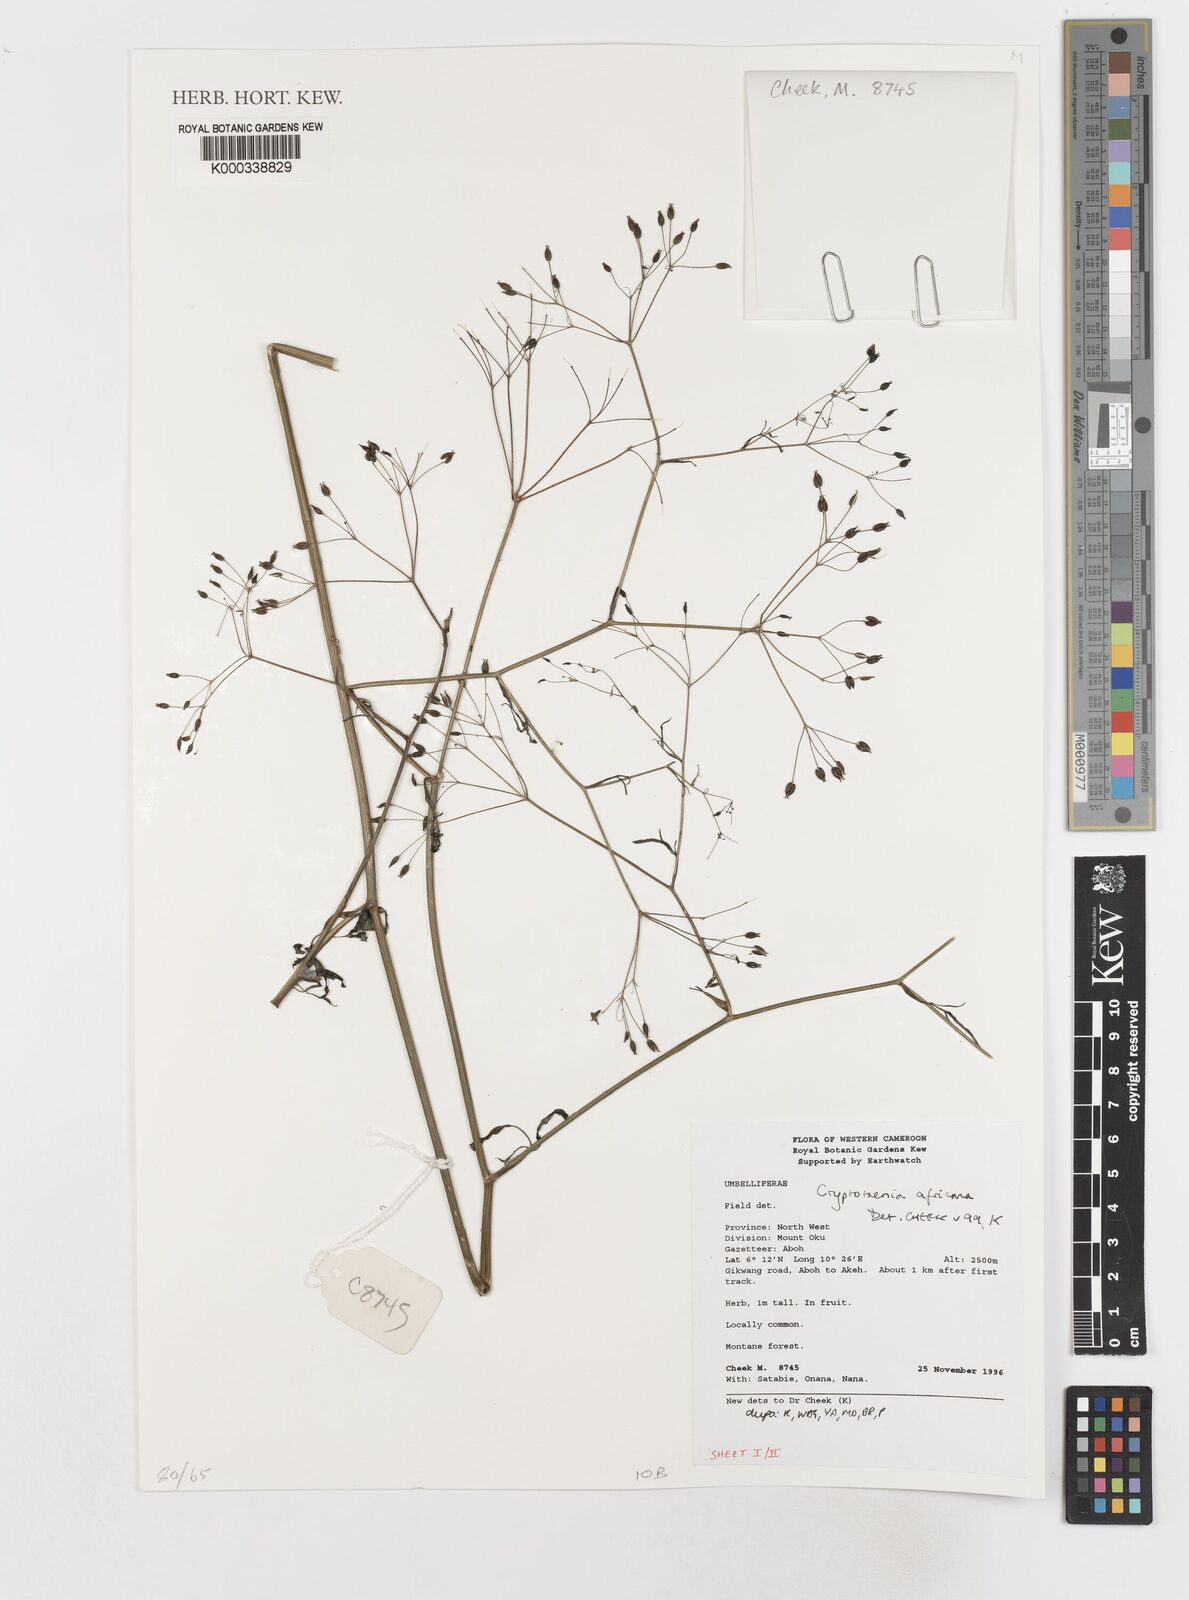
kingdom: Plantae
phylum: Tracheophyta
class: Magnoliopsida
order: Apiales
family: Apiaceae
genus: Cryptotaenia
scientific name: Cryptotaenia africana
